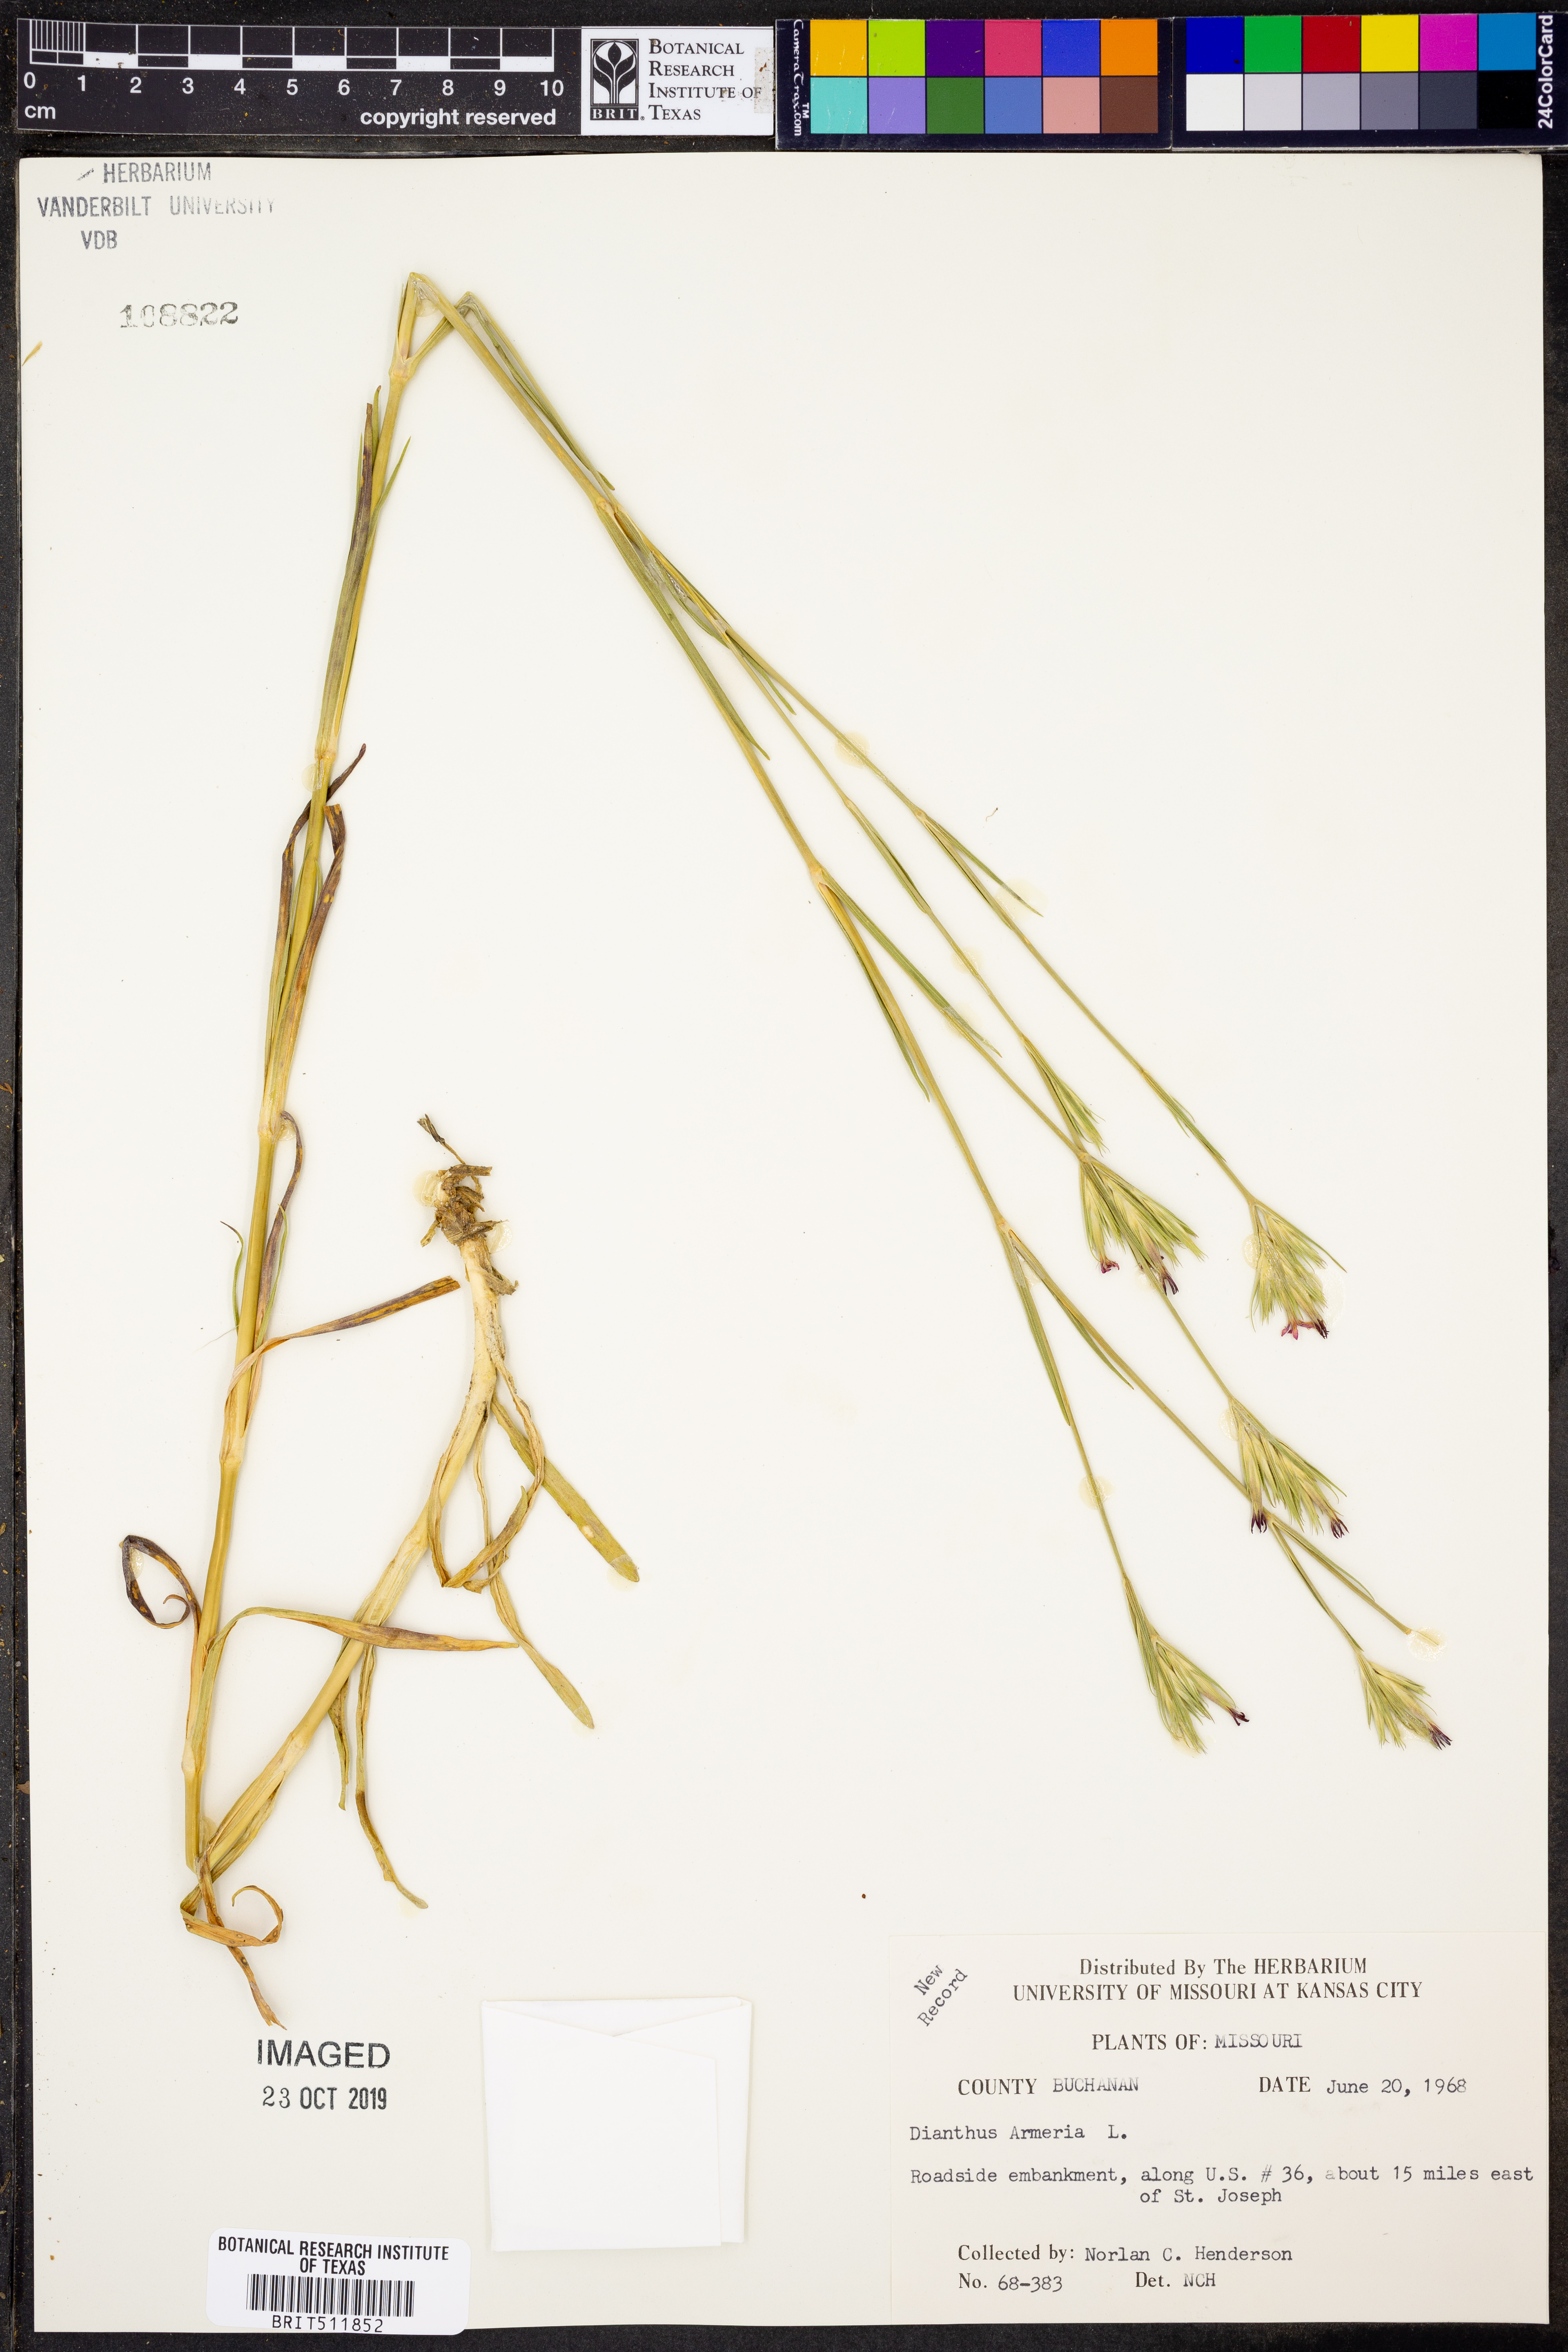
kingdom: Plantae
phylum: Tracheophyta
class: Magnoliopsida
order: Caryophyllales
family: Caryophyllaceae
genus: Dianthus
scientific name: Dianthus armeria
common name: Deptford pink
